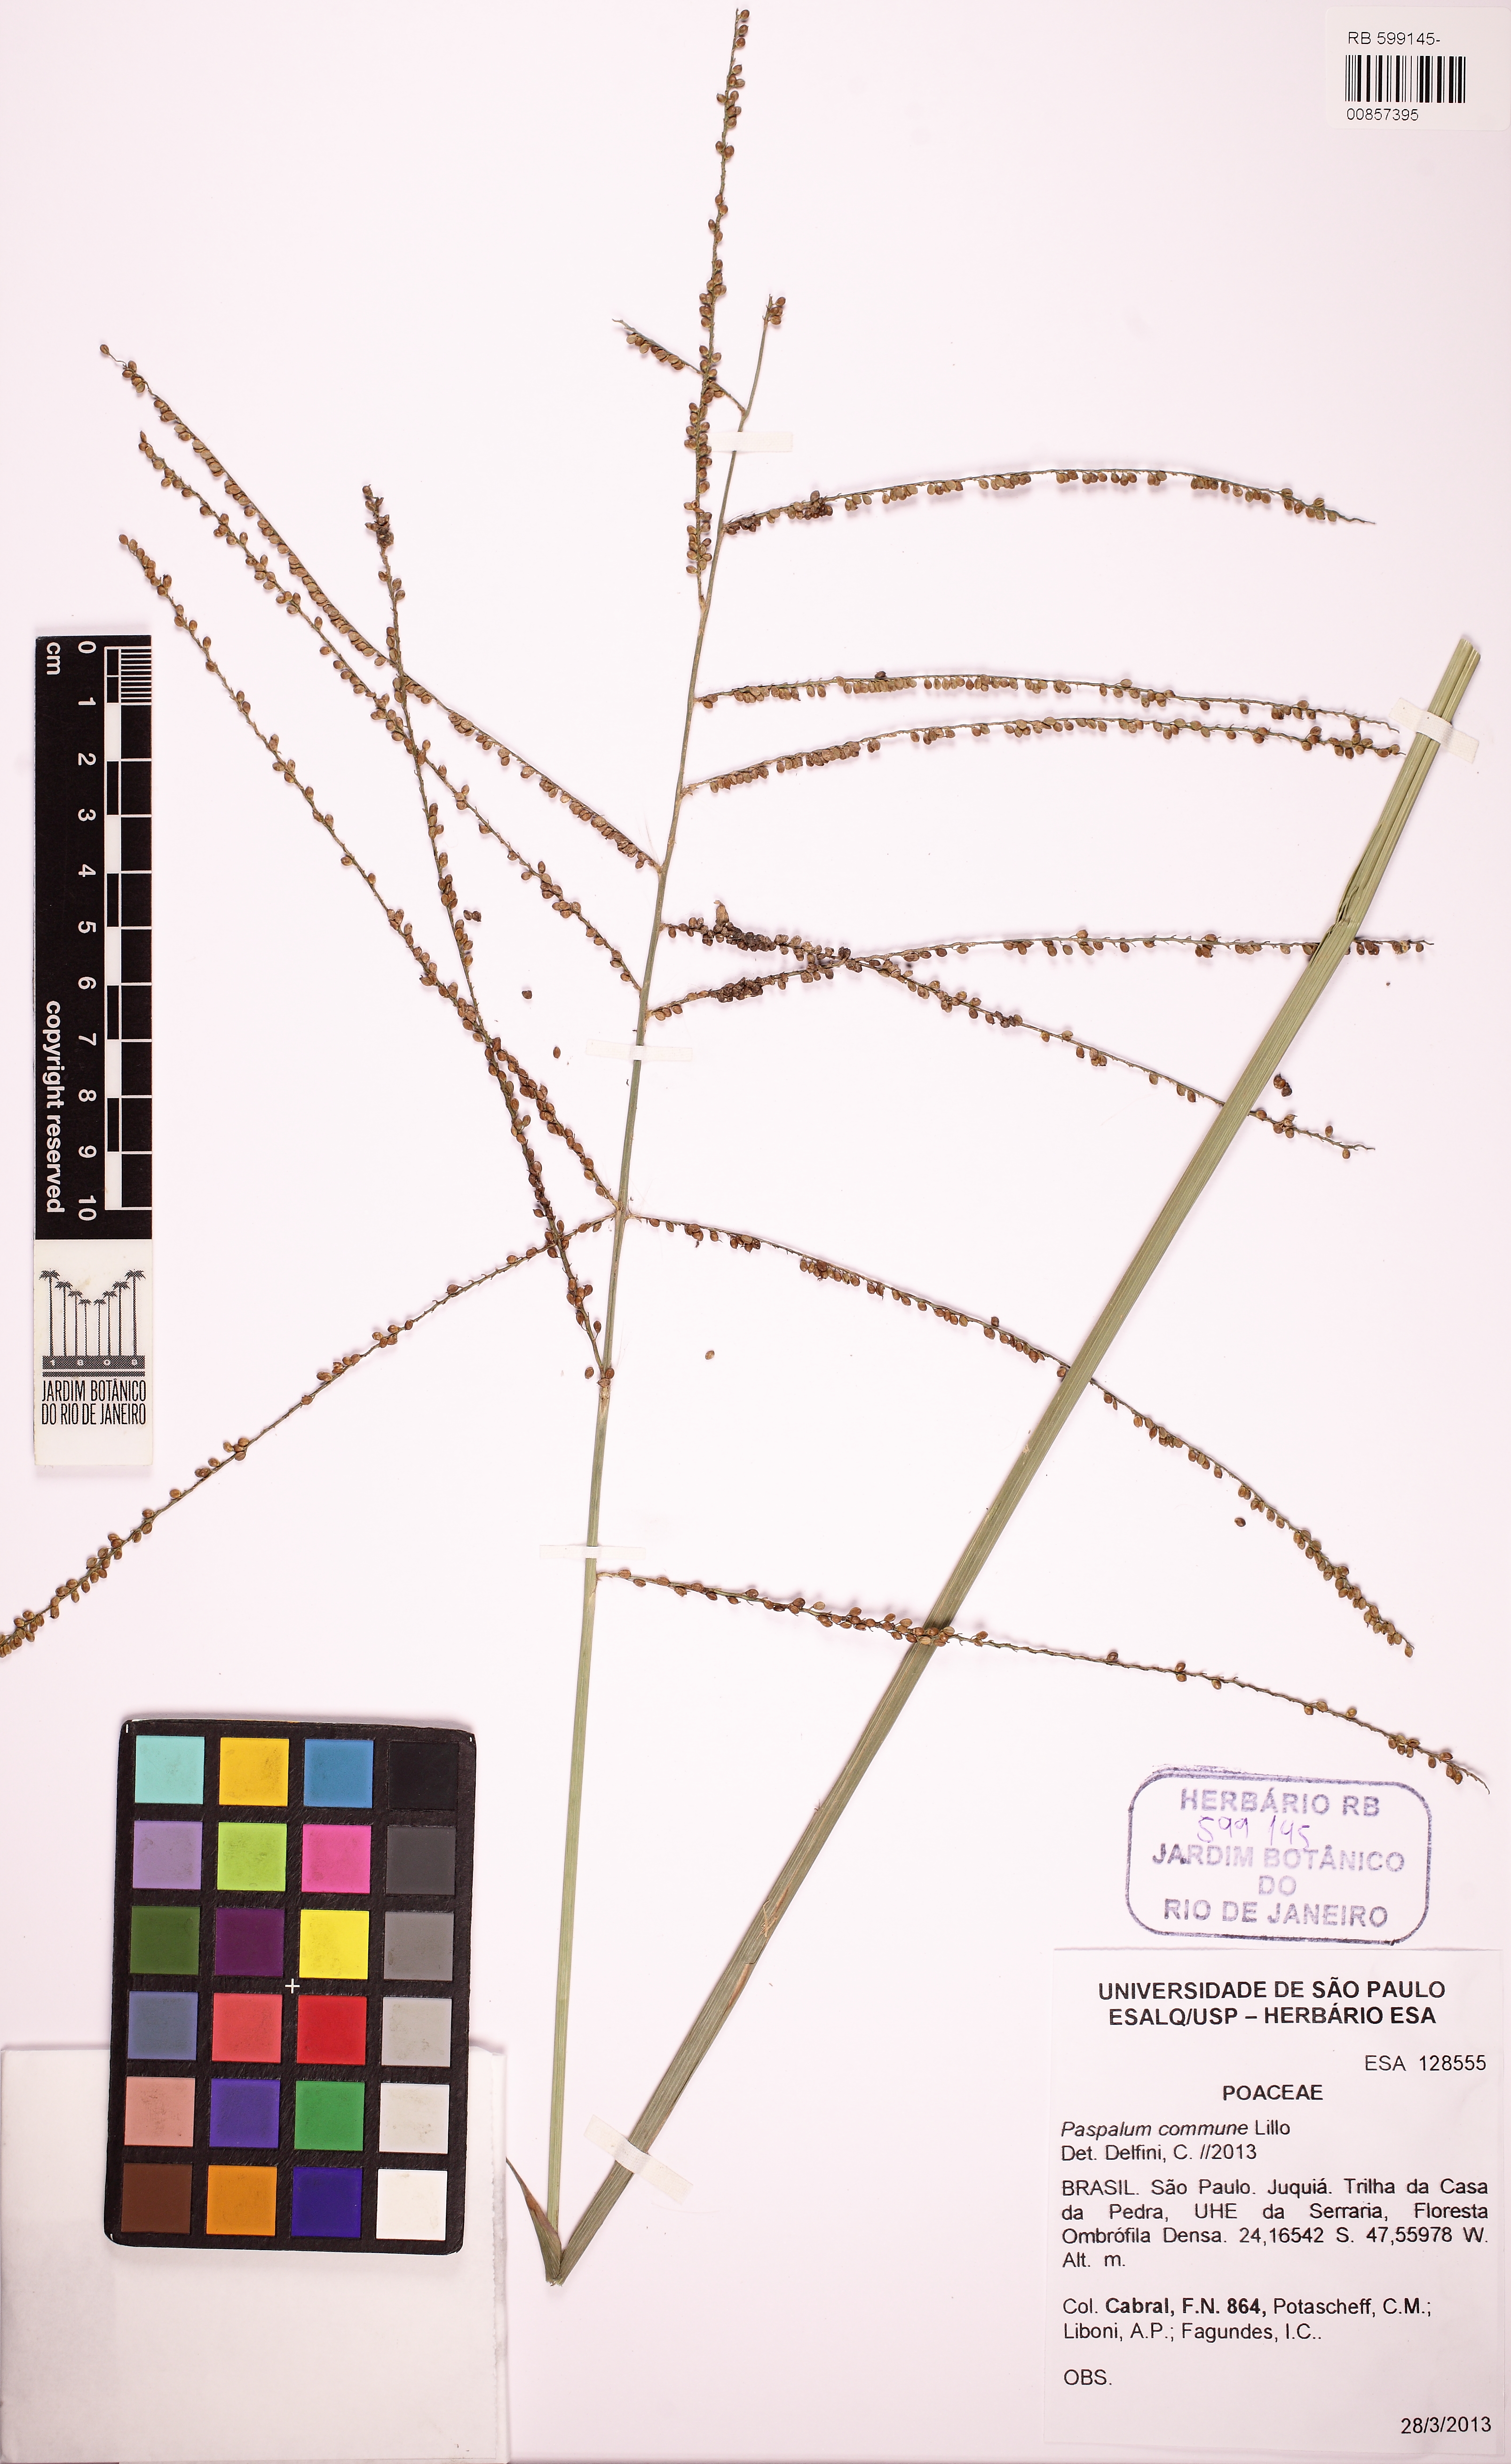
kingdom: Plantae
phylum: Tracheophyta
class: Liliopsida
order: Poales
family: Poaceae
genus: Paspalum
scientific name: Paspalum commune
